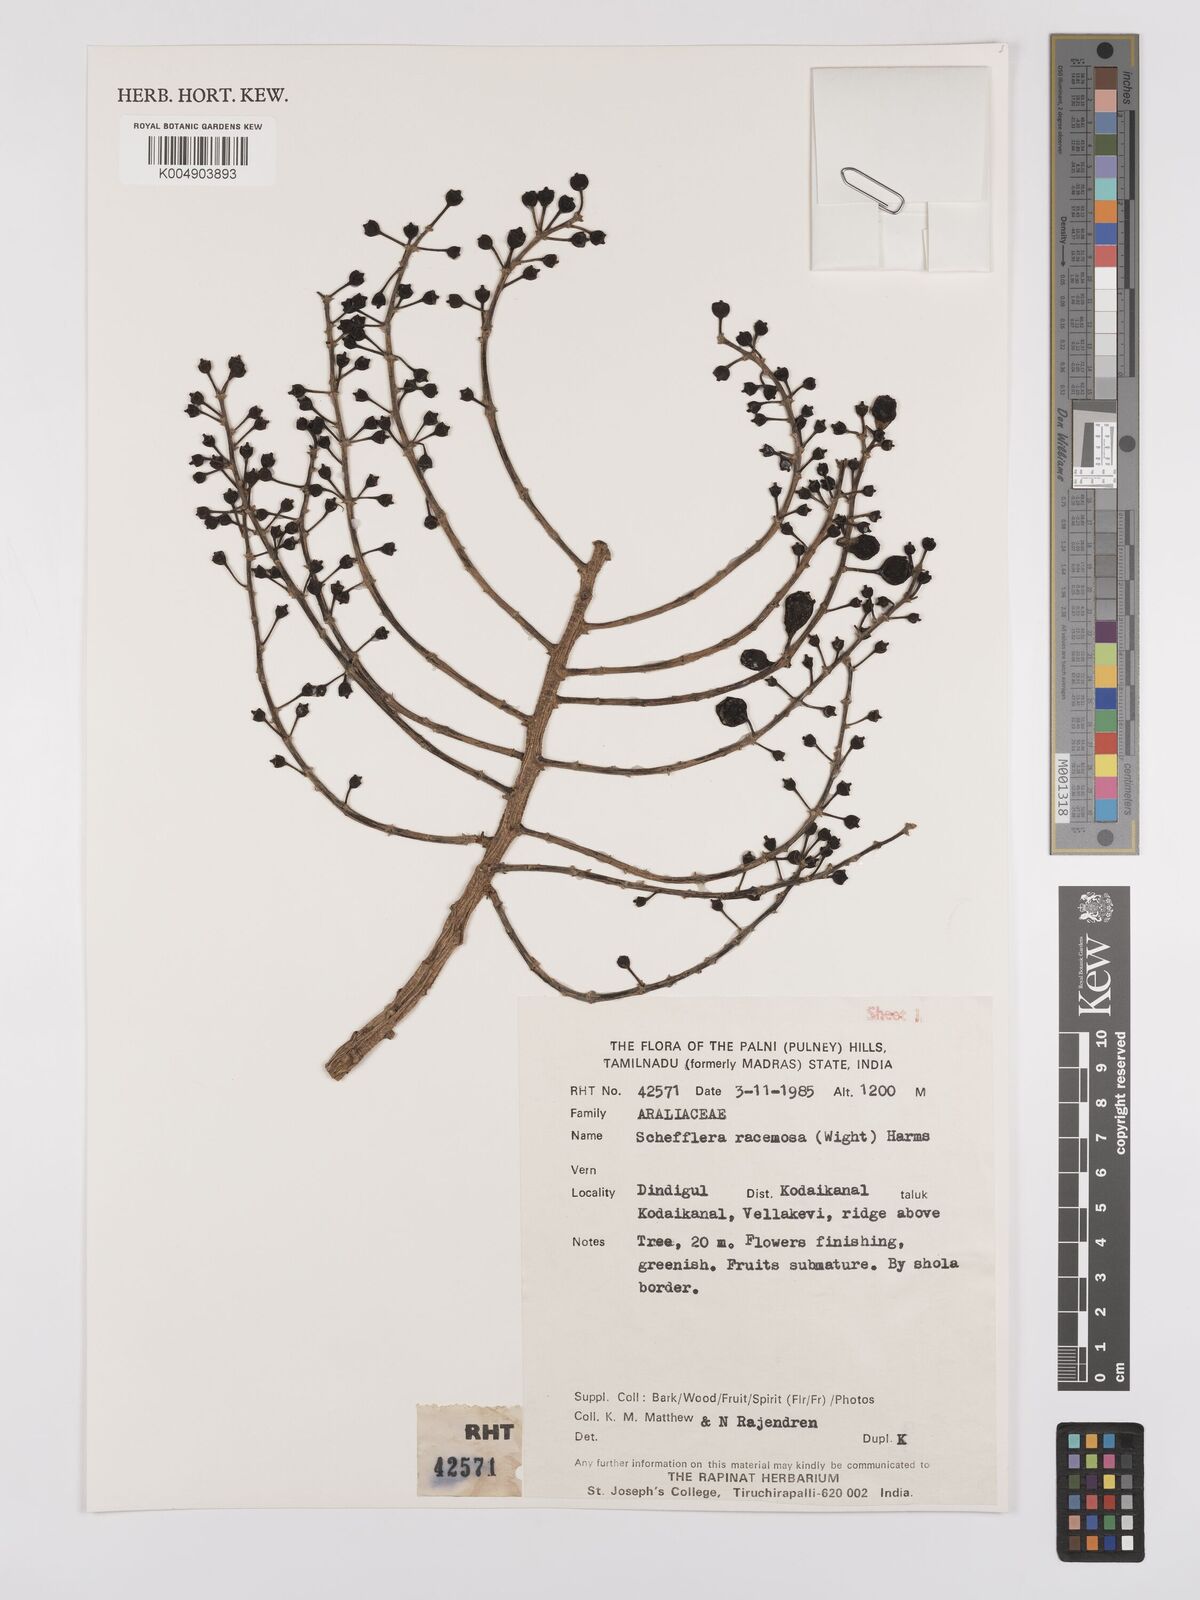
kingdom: Plantae
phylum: Tracheophyta
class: Magnoliopsida
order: Apiales
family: Araliaceae
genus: Heptapleurum
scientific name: Heptapleurum racemosum
